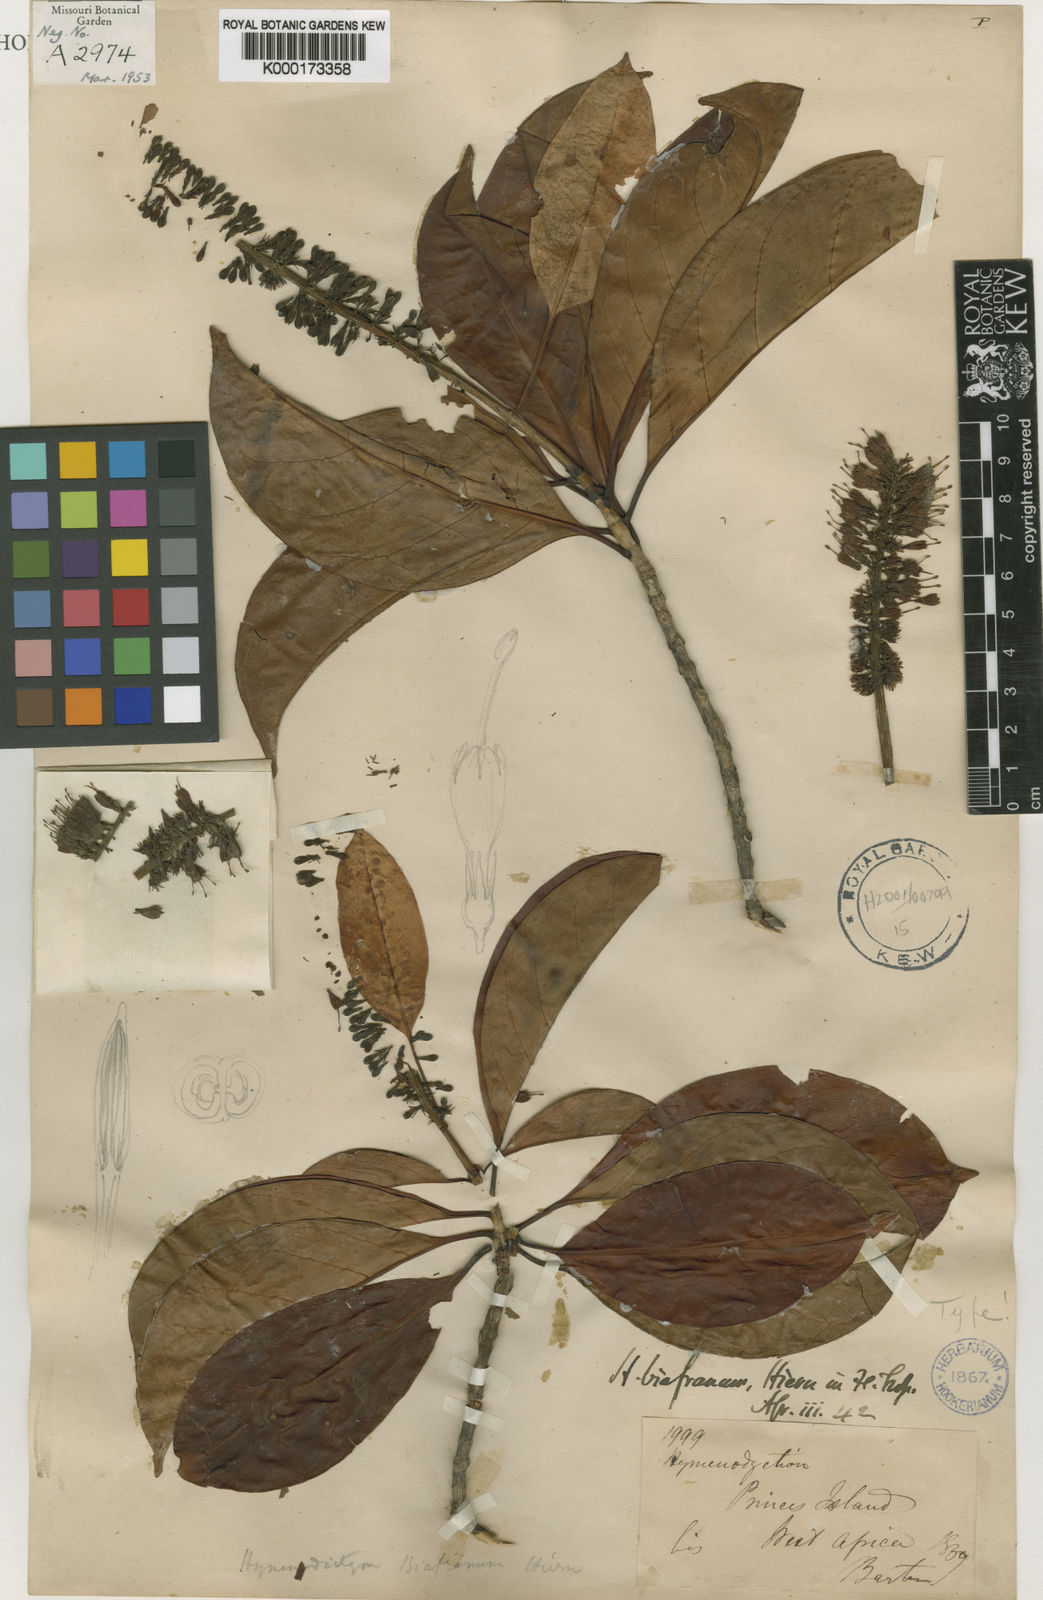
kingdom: Plantae
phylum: Tracheophyta
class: Magnoliopsida
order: Gentianales
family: Rubiaceae
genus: Hymenodictyon
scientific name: Hymenodictyon biafranum
